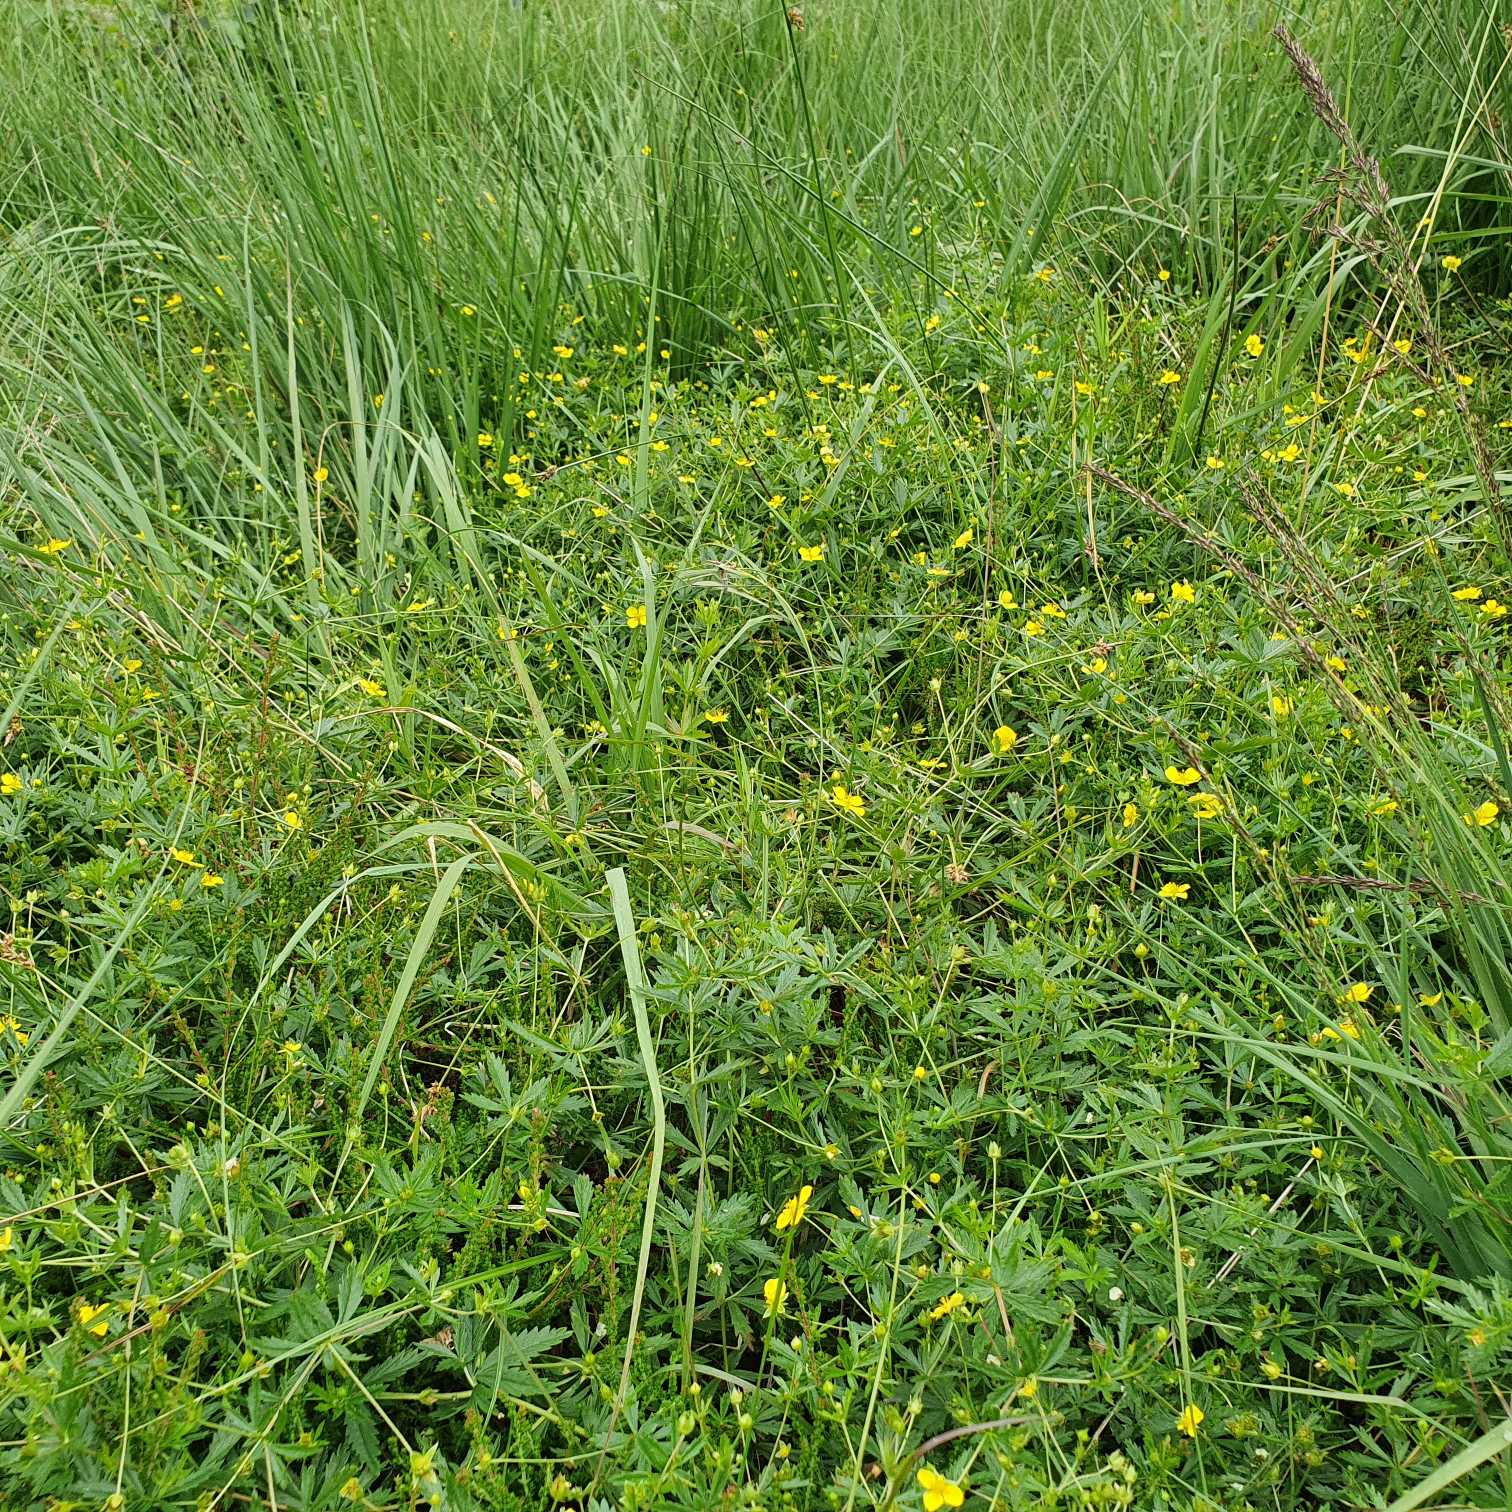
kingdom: Plantae
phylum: Tracheophyta
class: Magnoliopsida
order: Rosales
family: Rosaceae
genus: Potentilla
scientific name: Potentilla erecta
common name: Tormentil
